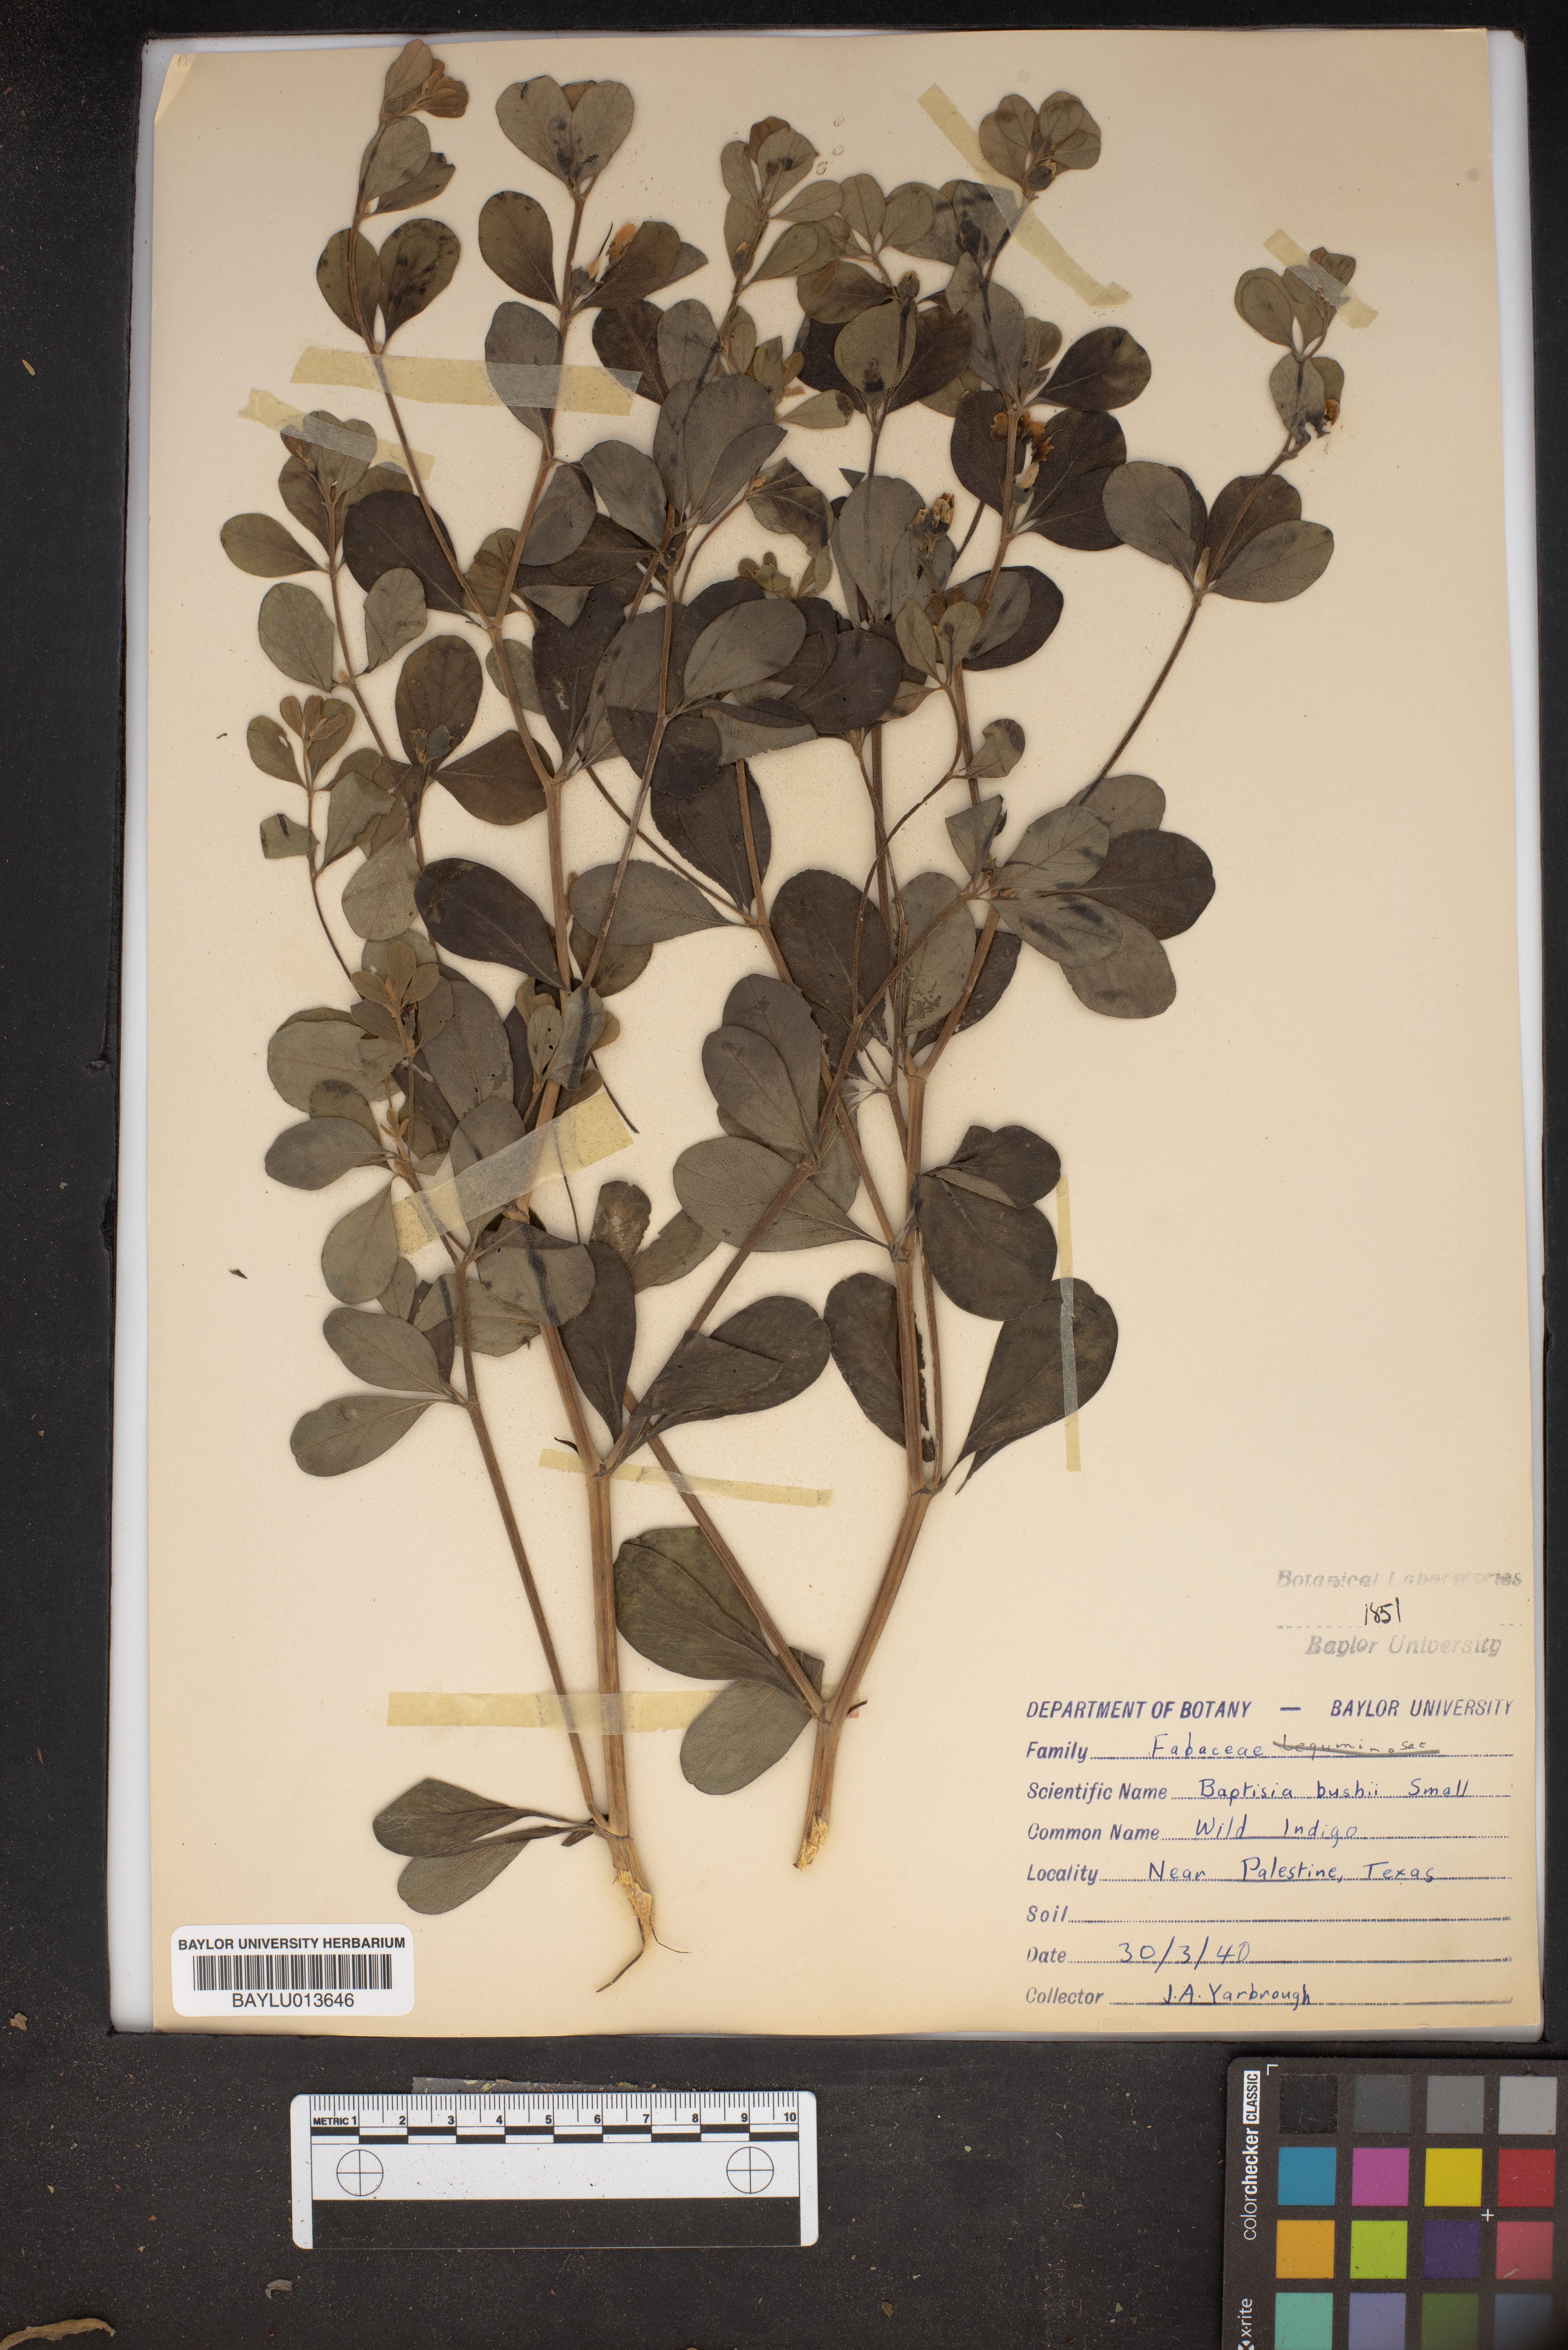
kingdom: Plantae
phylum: Tracheophyta
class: Magnoliopsida
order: Fabales
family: Fabaceae
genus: Baptisia
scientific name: Baptisia bushii
